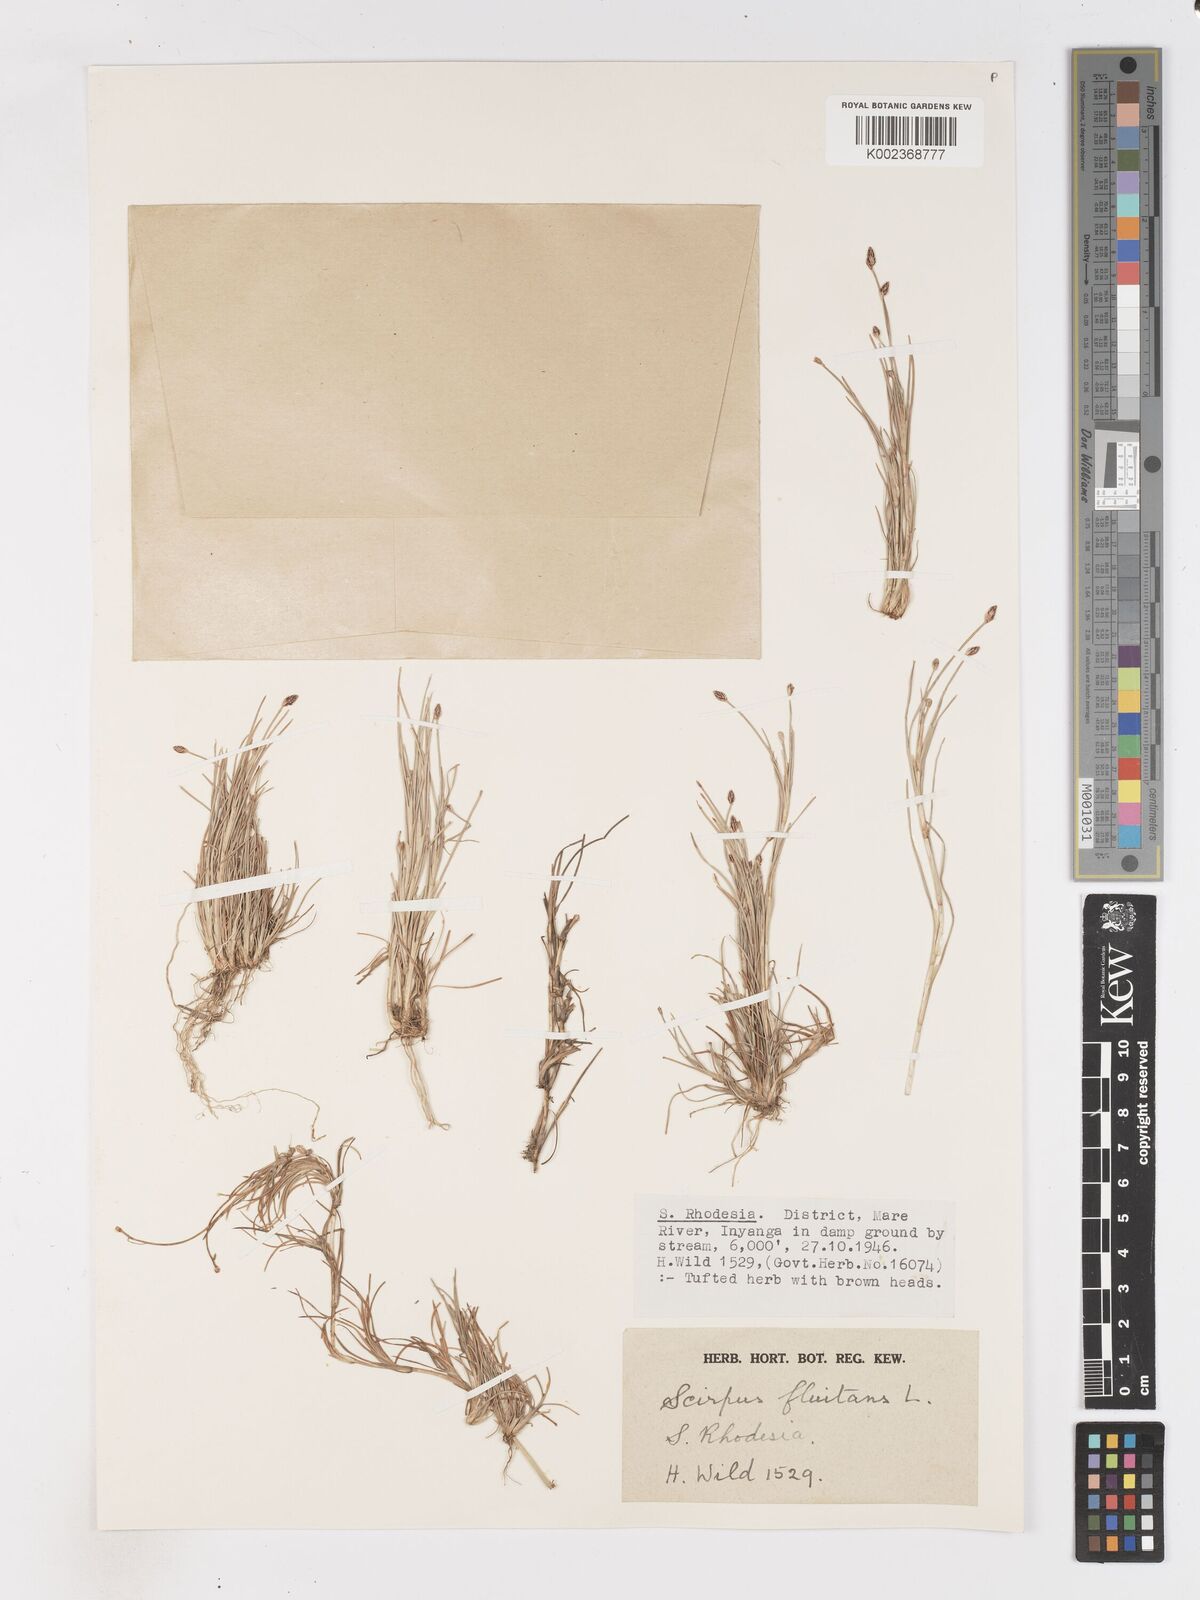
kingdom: Plantae
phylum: Tracheophyta
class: Liliopsida
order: Poales
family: Cyperaceae
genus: Isolepis
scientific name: Isolepis fluitans
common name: Floating club-rush
